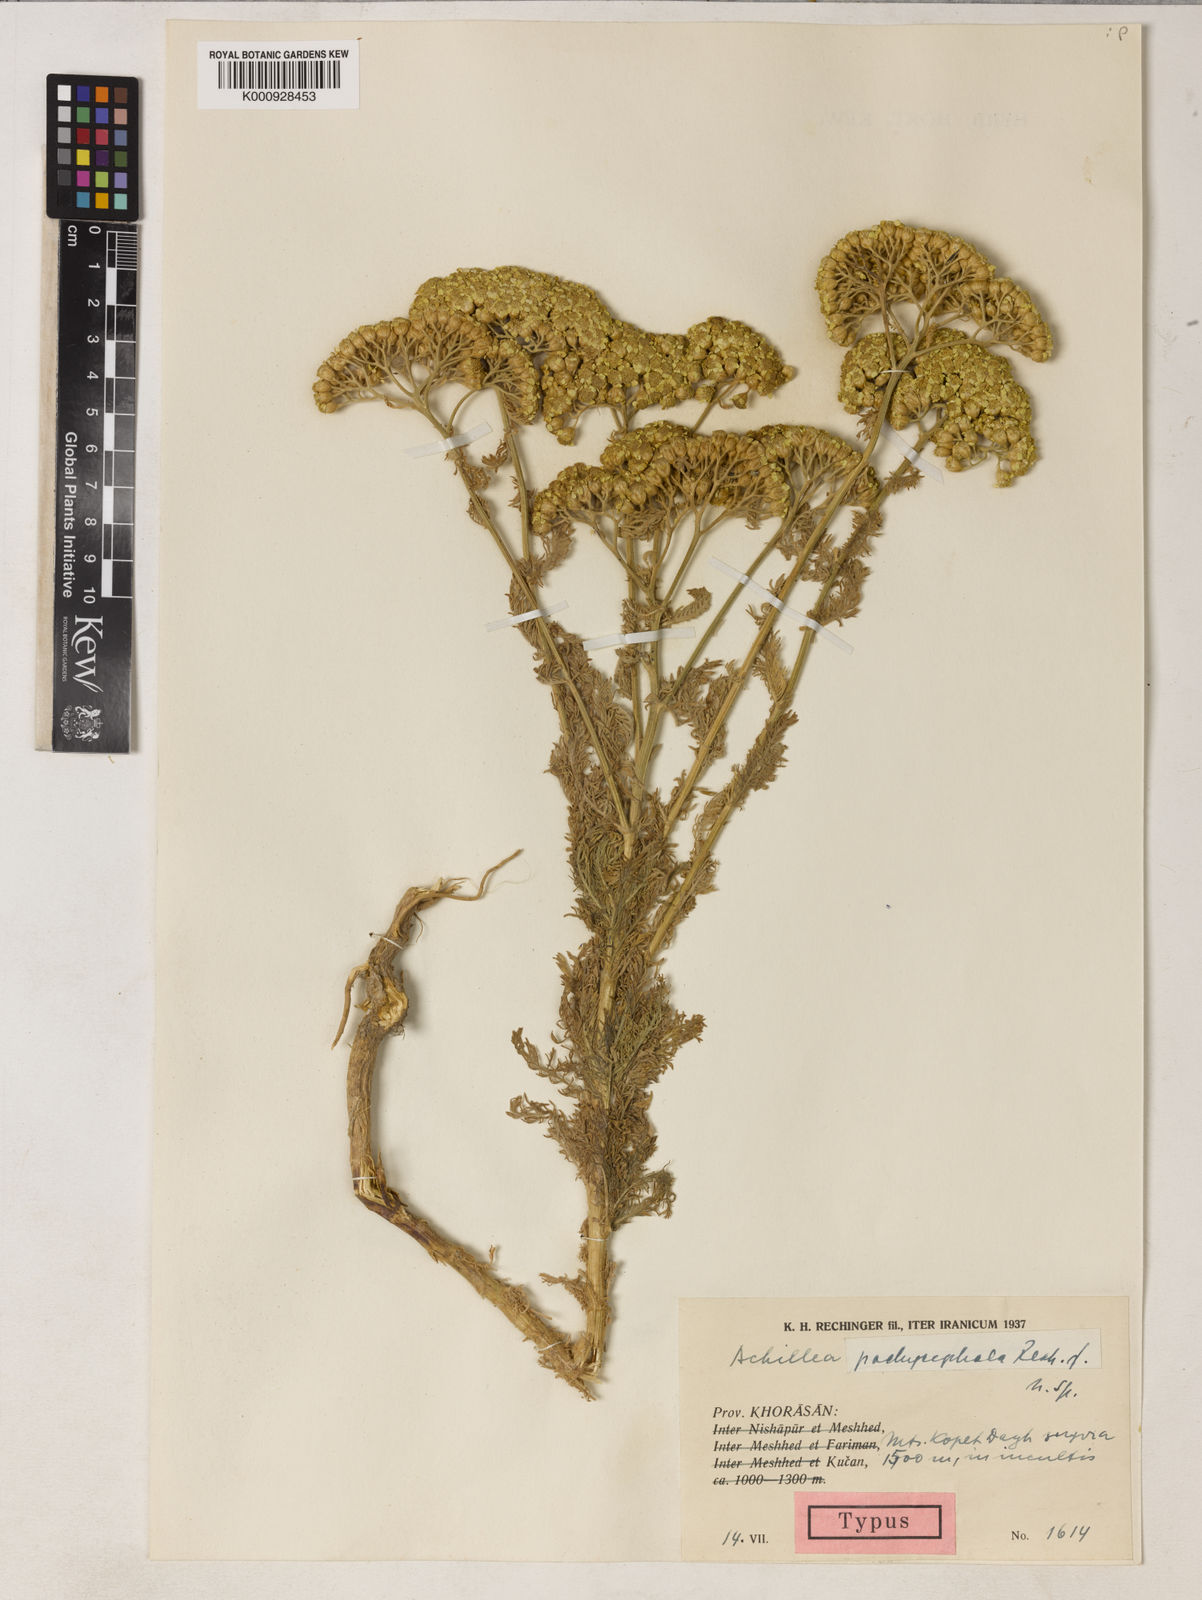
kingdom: Plantae
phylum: Tracheophyta
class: Magnoliopsida
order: Asterales
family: Asteraceae
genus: Achillea
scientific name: Achillea pachycephala
